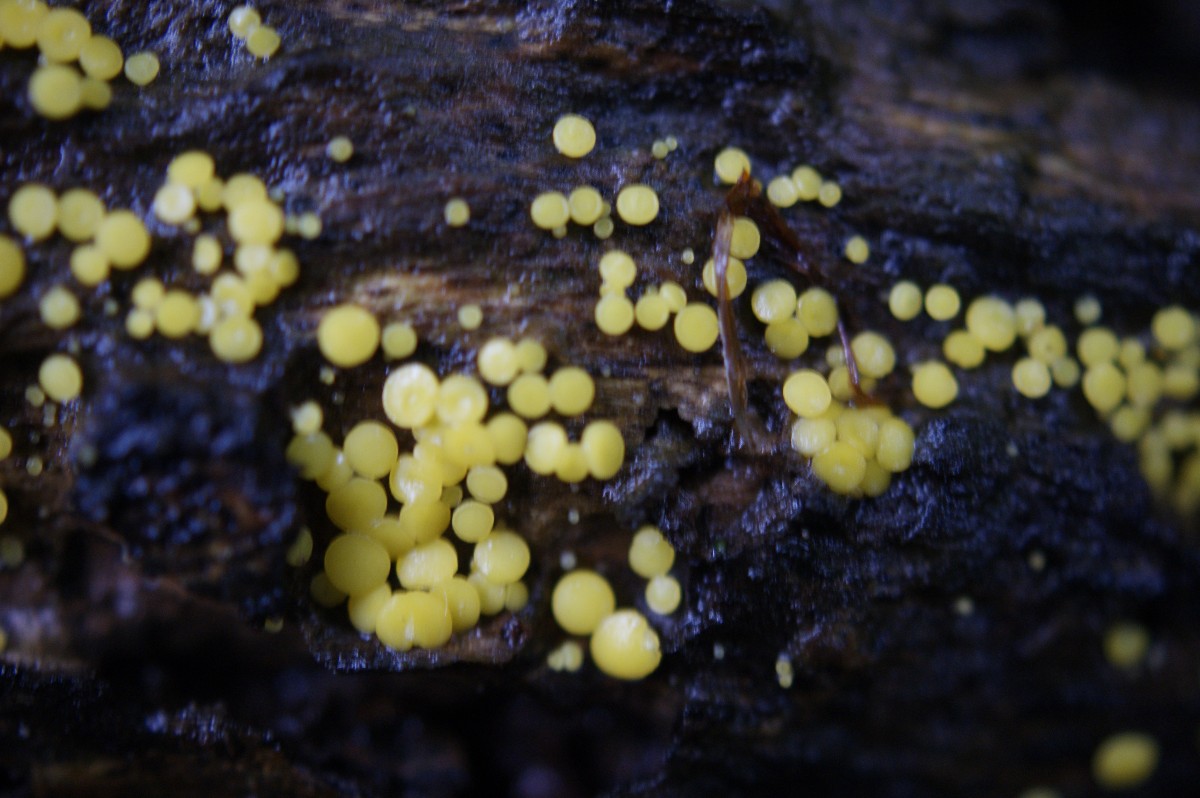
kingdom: Fungi
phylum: Ascomycota
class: Leotiomycetes
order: Helotiales
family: Pezizellaceae
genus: Calycina
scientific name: Calycina citrina
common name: almindelig gulskive
